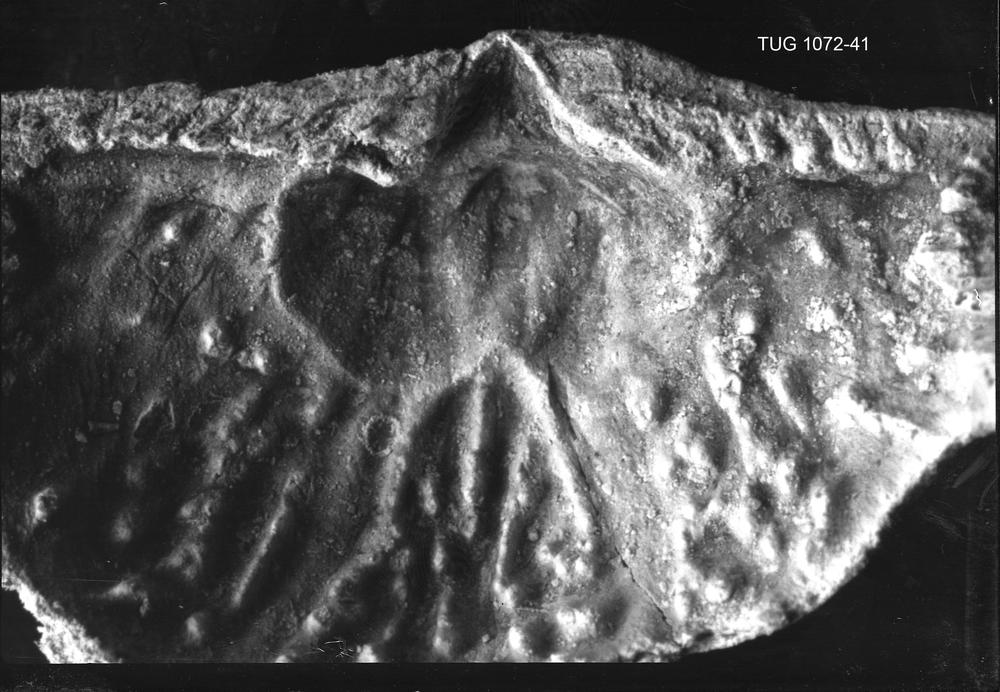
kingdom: Animalia
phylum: Brachiopoda
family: Plectambonitidae
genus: Inversella
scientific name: Inversella borealis
